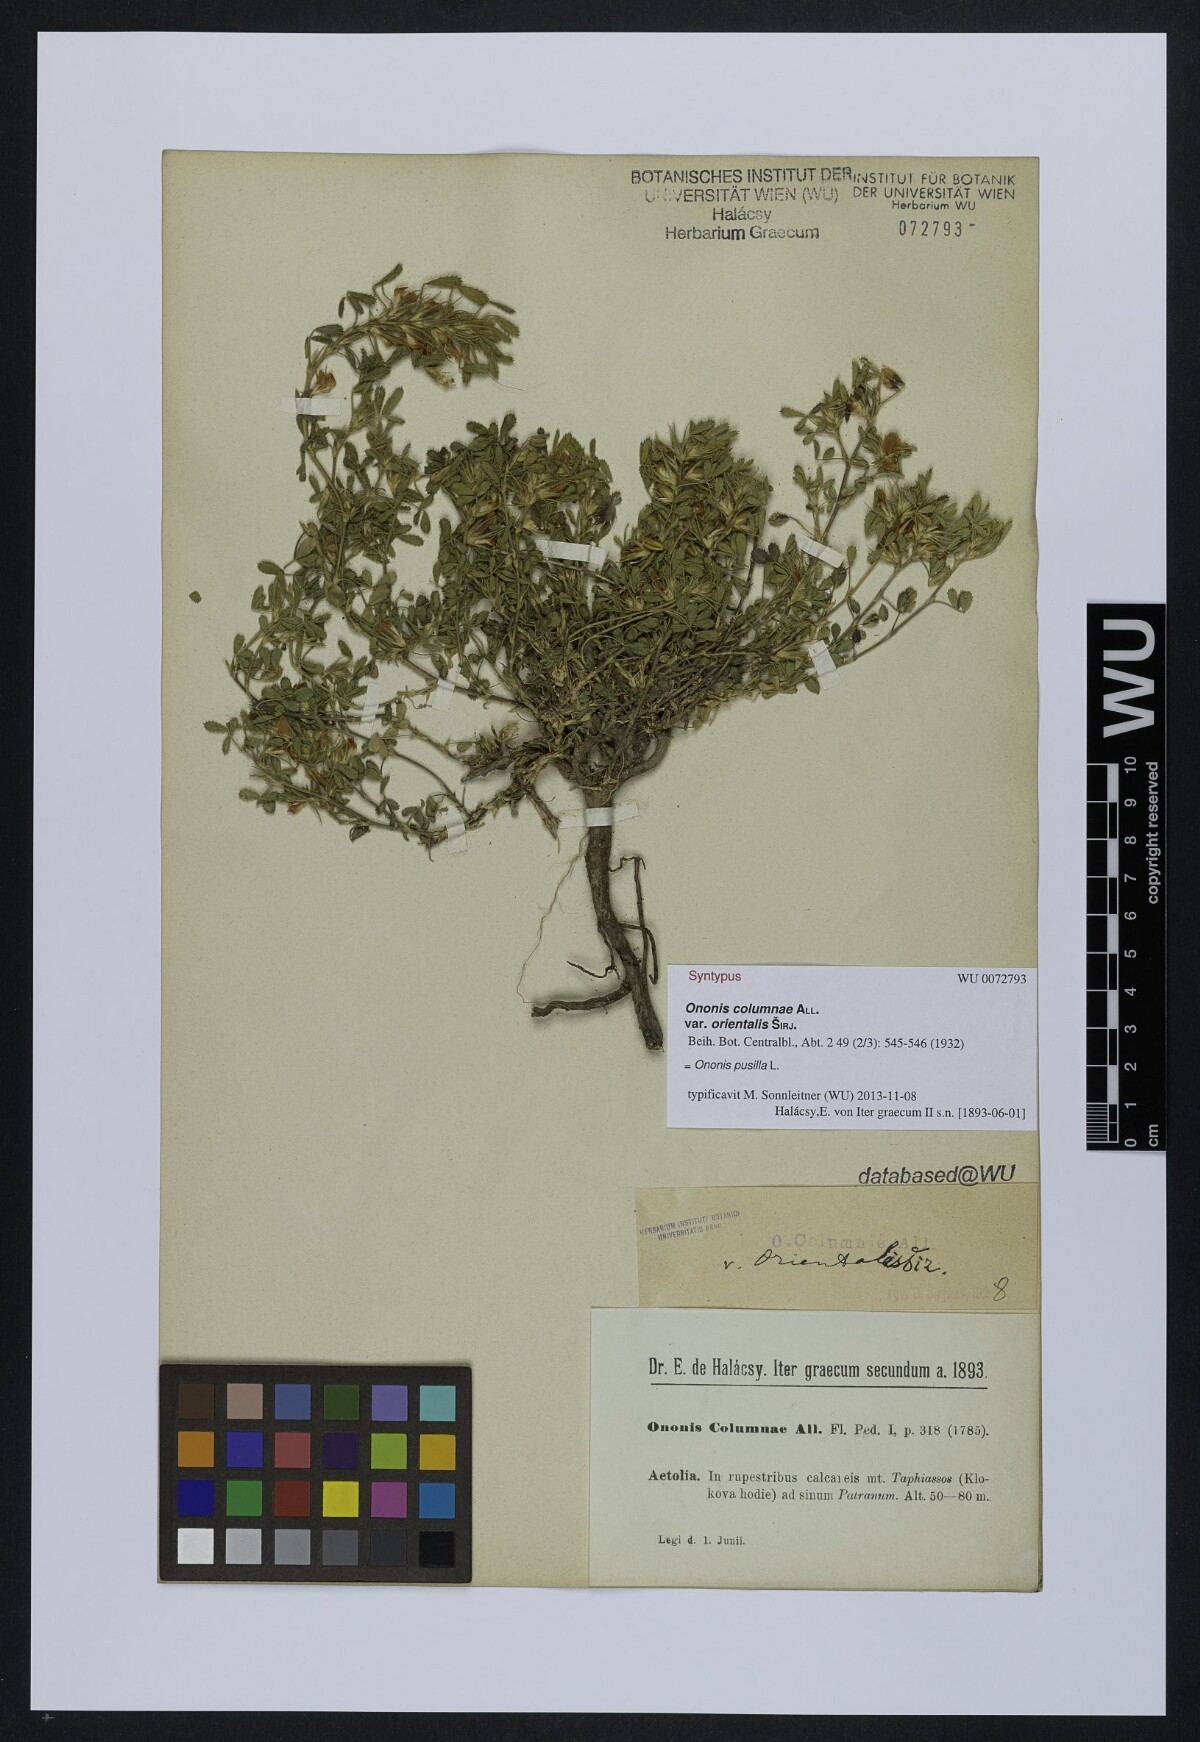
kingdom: Plantae
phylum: Tracheophyta
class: Magnoliopsida
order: Fabales
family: Fabaceae
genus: Ononis
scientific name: Ononis pusilla
